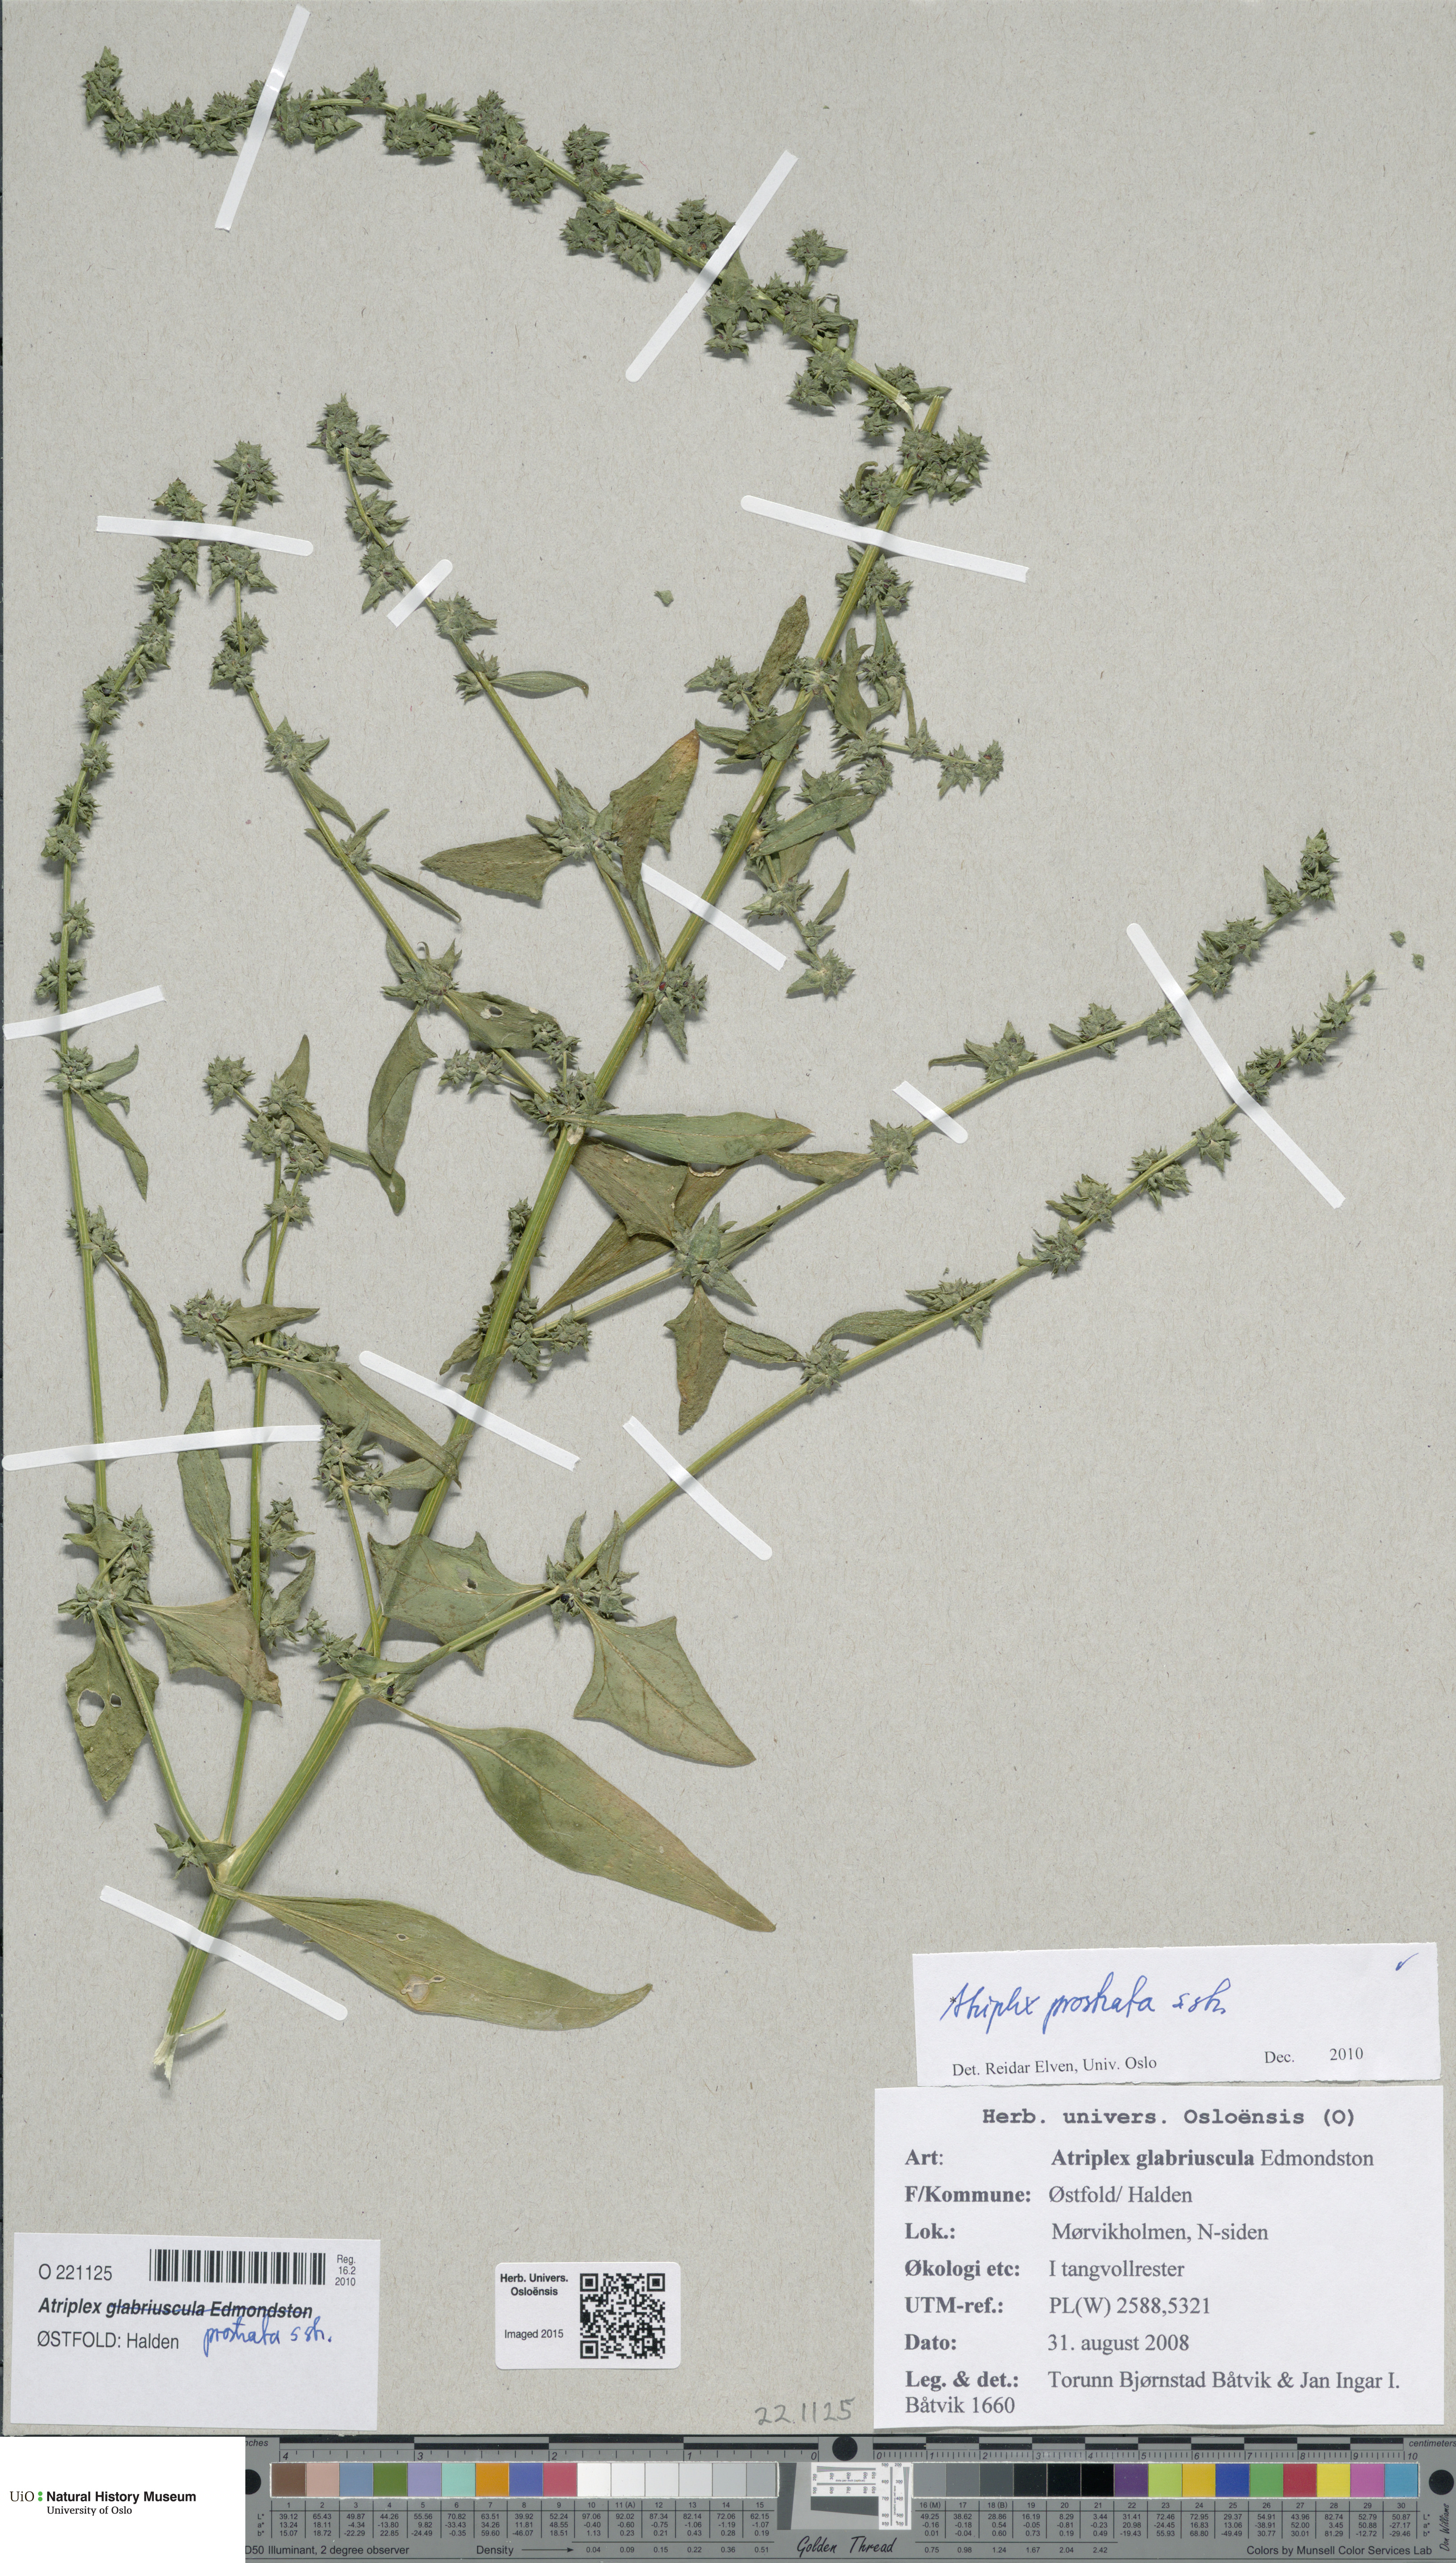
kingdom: Plantae
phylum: Tracheophyta
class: Magnoliopsida
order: Caryophyllales
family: Amaranthaceae
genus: Atriplex
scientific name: Atriplex prostrata
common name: Spear-leaved orache
